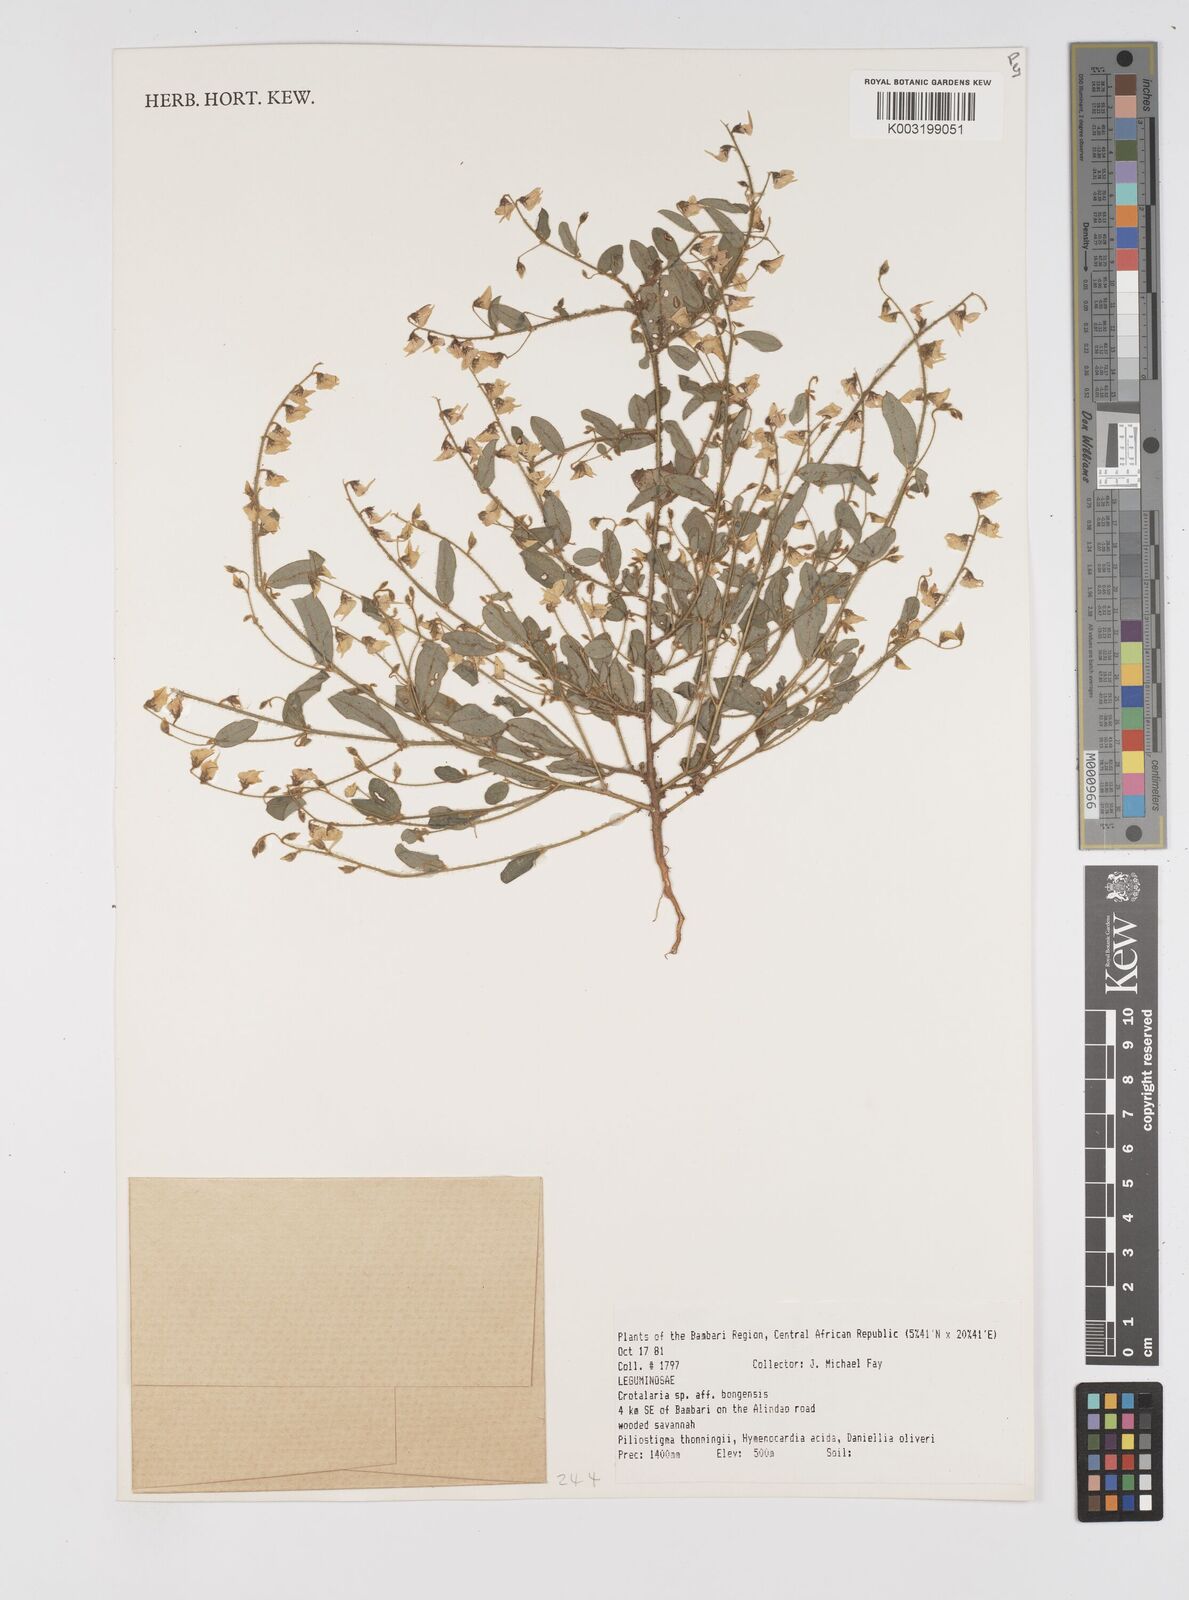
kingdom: Plantae
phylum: Tracheophyta
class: Magnoliopsida
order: Fabales
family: Fabaceae
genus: Crotalaria
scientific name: Crotalaria bongensis
